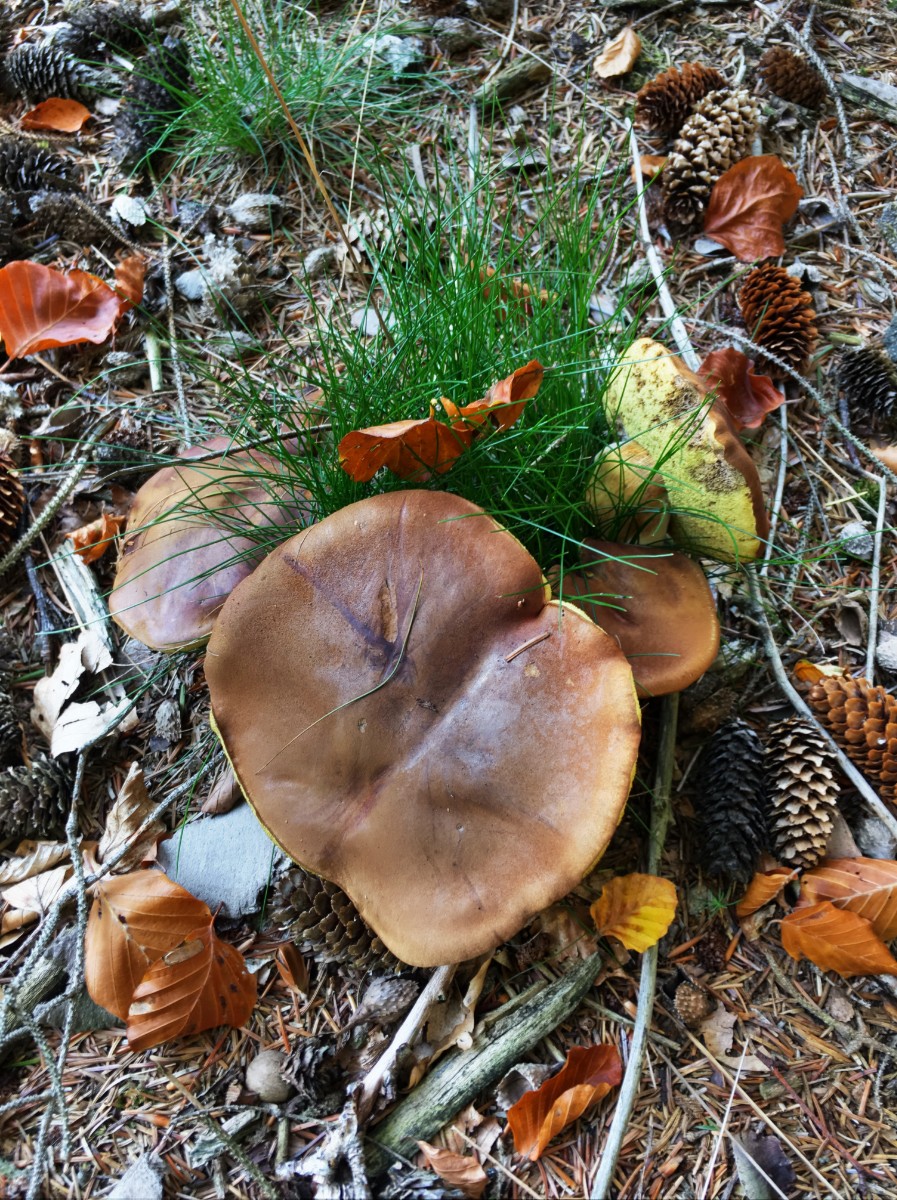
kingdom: Fungi
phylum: Basidiomycota
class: Agaricomycetes
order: Boletales
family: Boletaceae
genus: Imleria
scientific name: Imleria badia
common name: brunstokket rørhat
